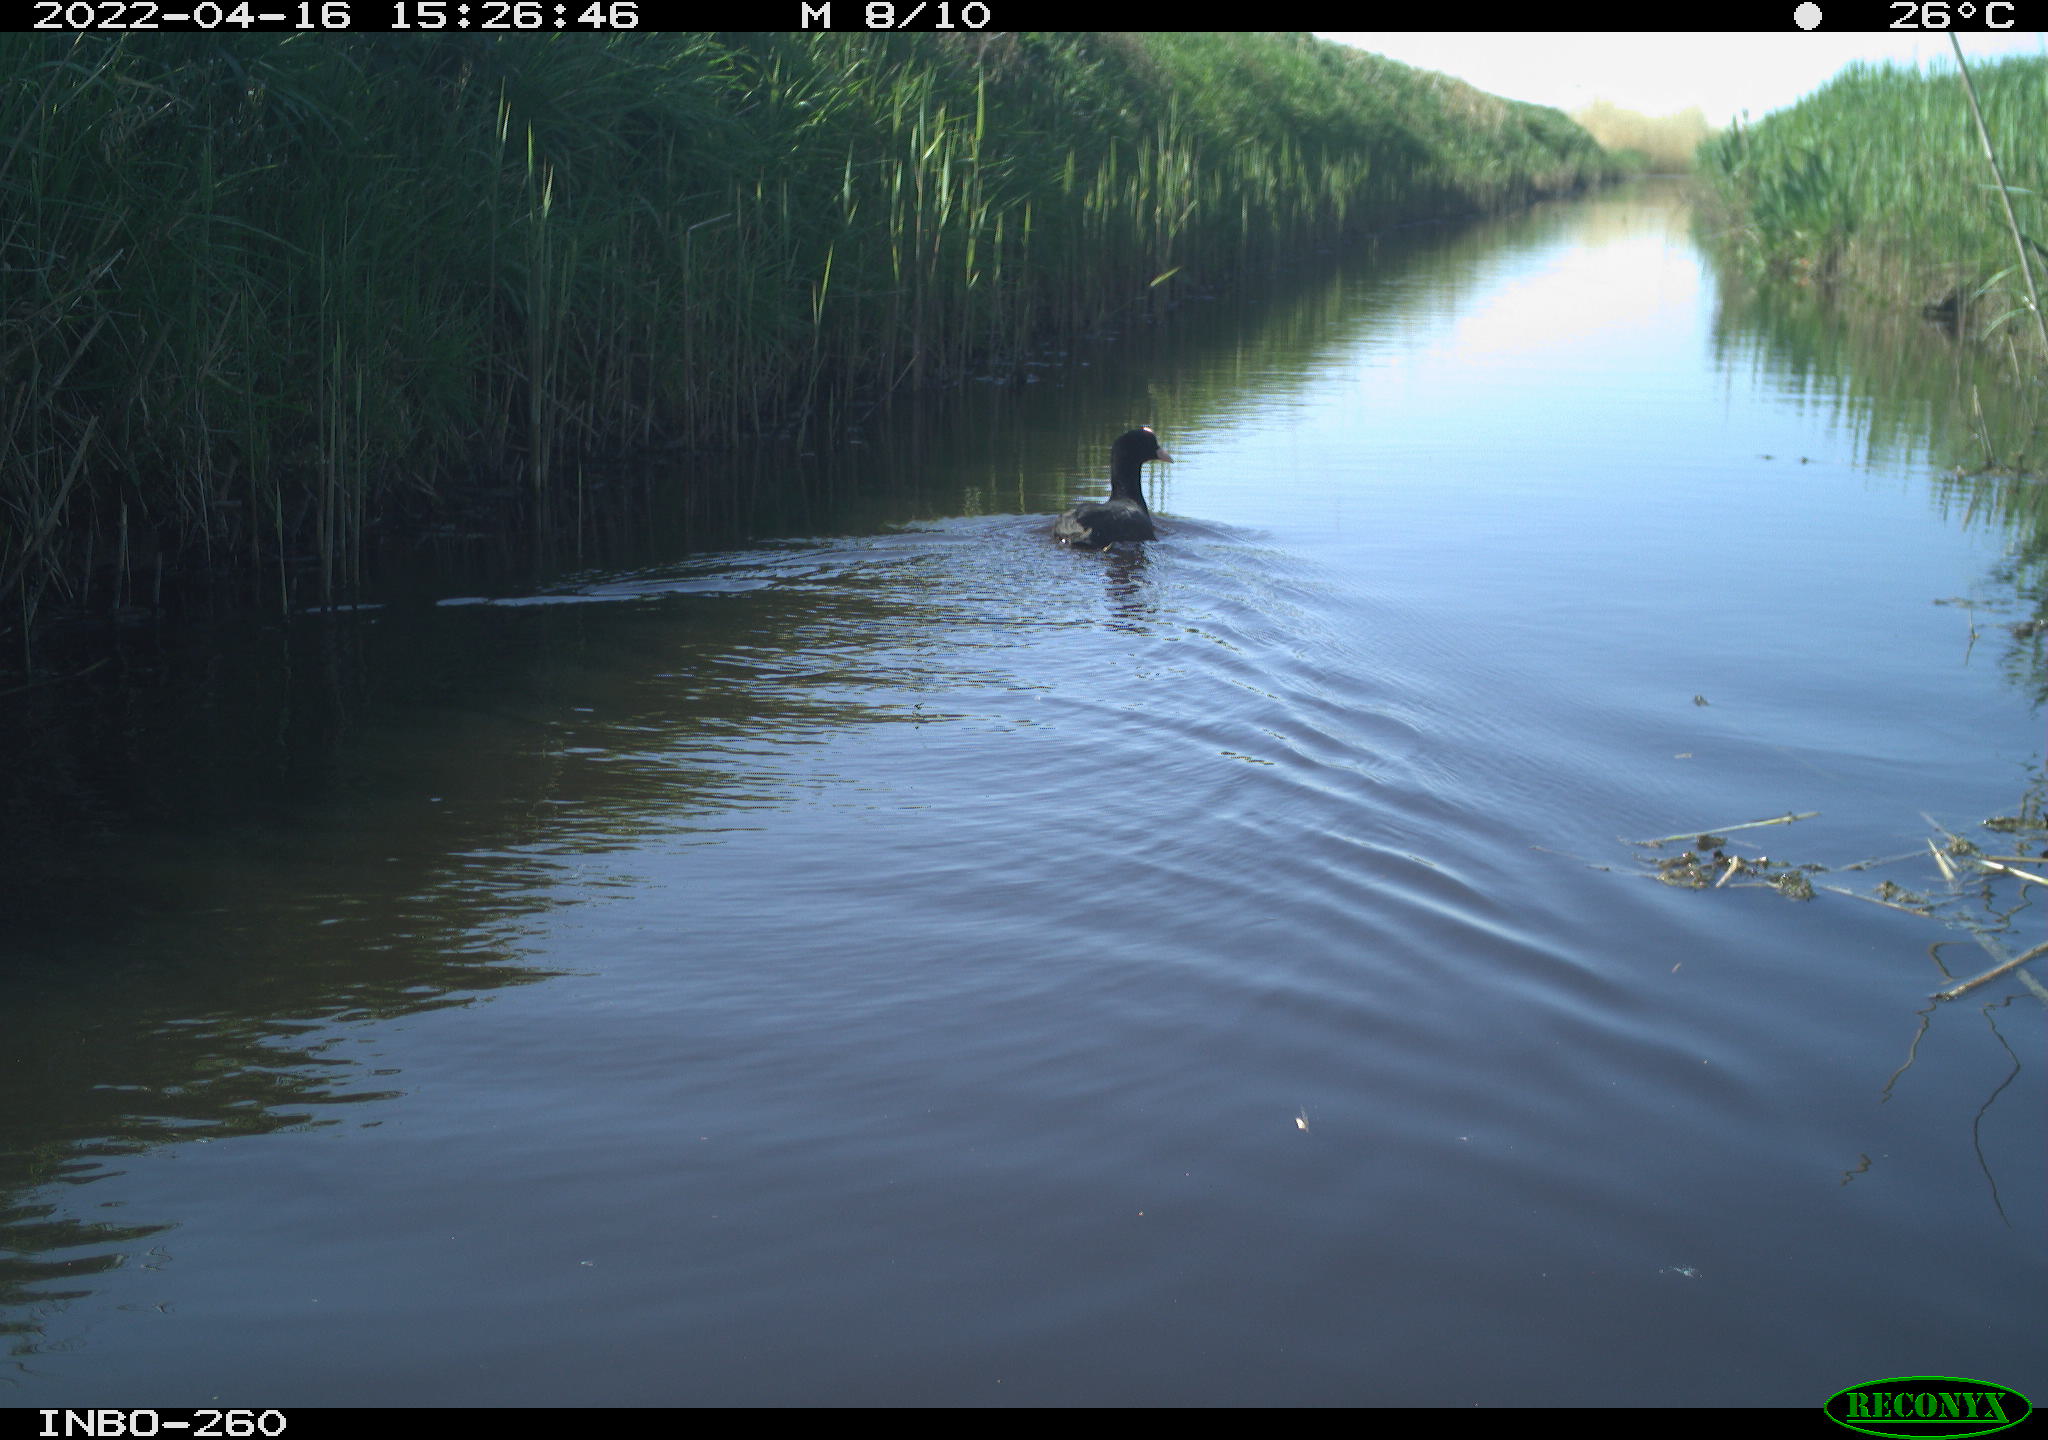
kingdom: Animalia
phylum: Chordata
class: Aves
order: Gruiformes
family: Rallidae
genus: Fulica
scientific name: Fulica atra
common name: Eurasian coot
